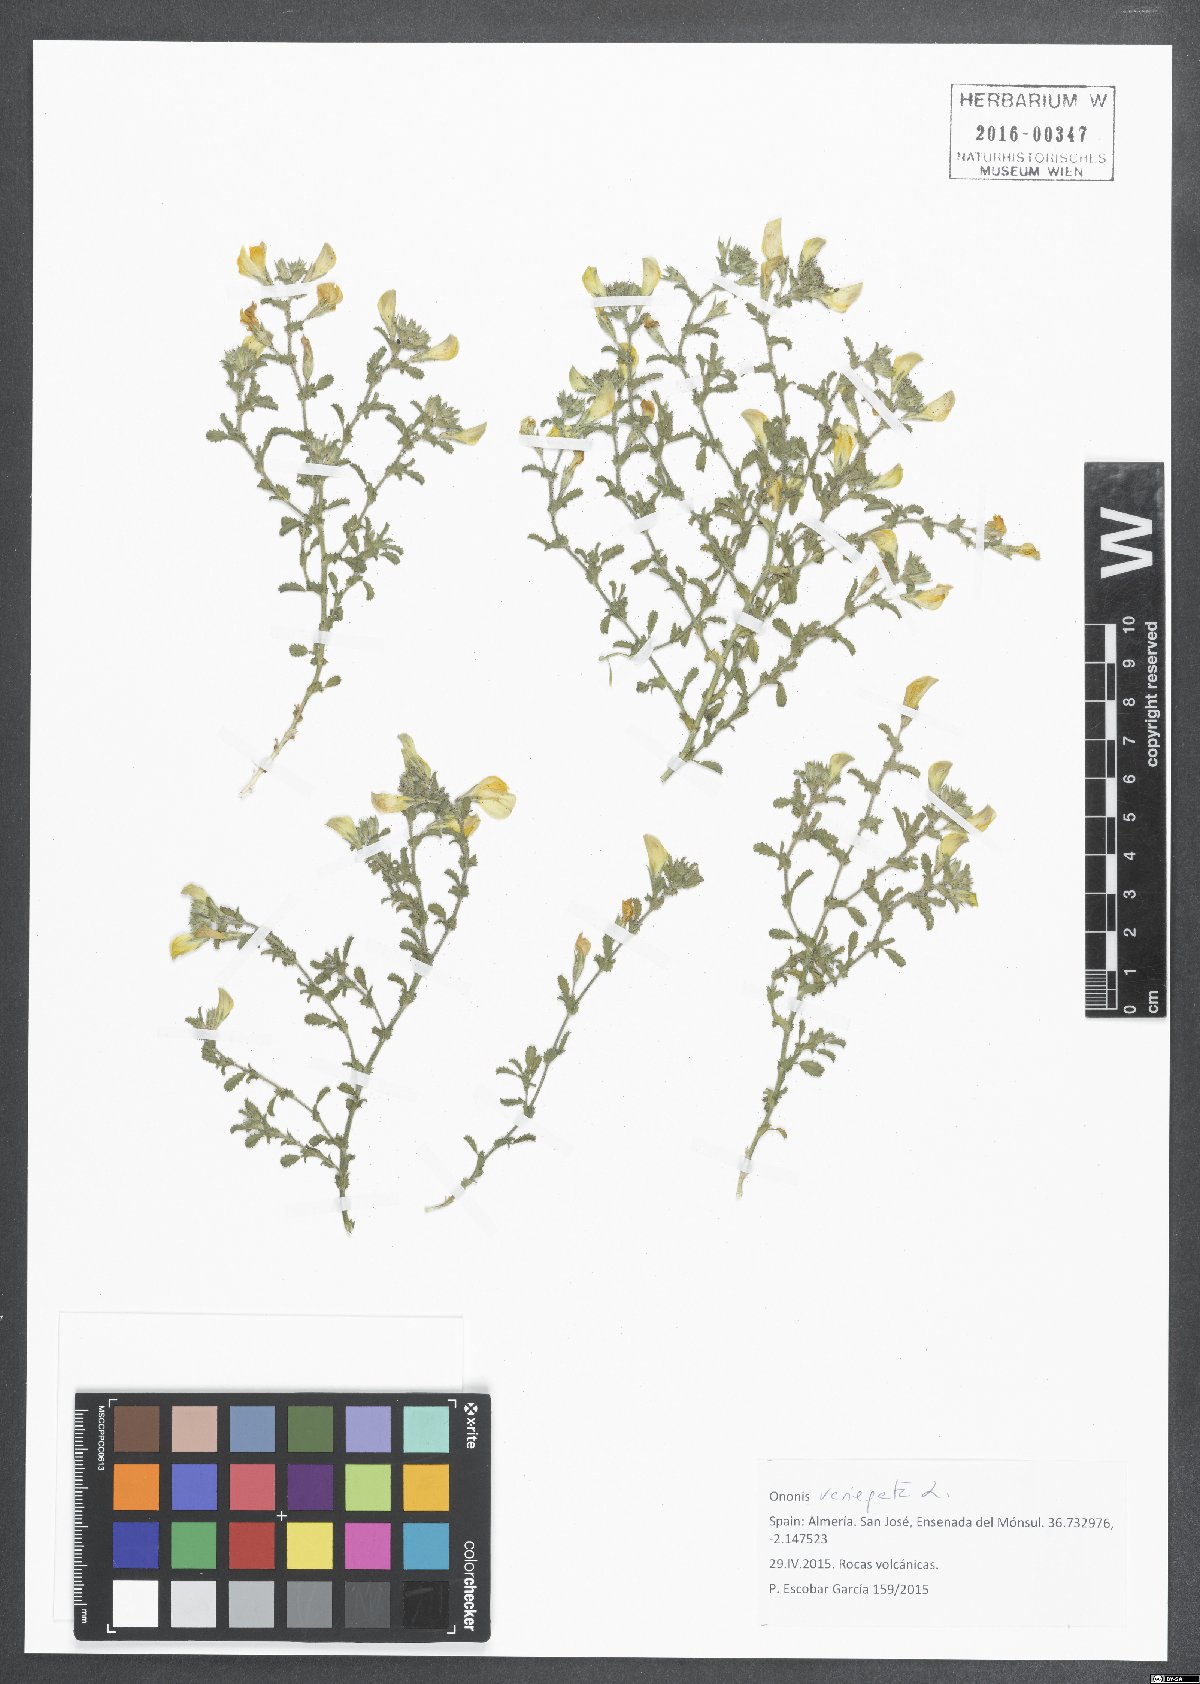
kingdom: Plantae
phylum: Tracheophyta
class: Magnoliopsida
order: Fabales
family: Fabaceae
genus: Ononis
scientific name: Ononis variegata
